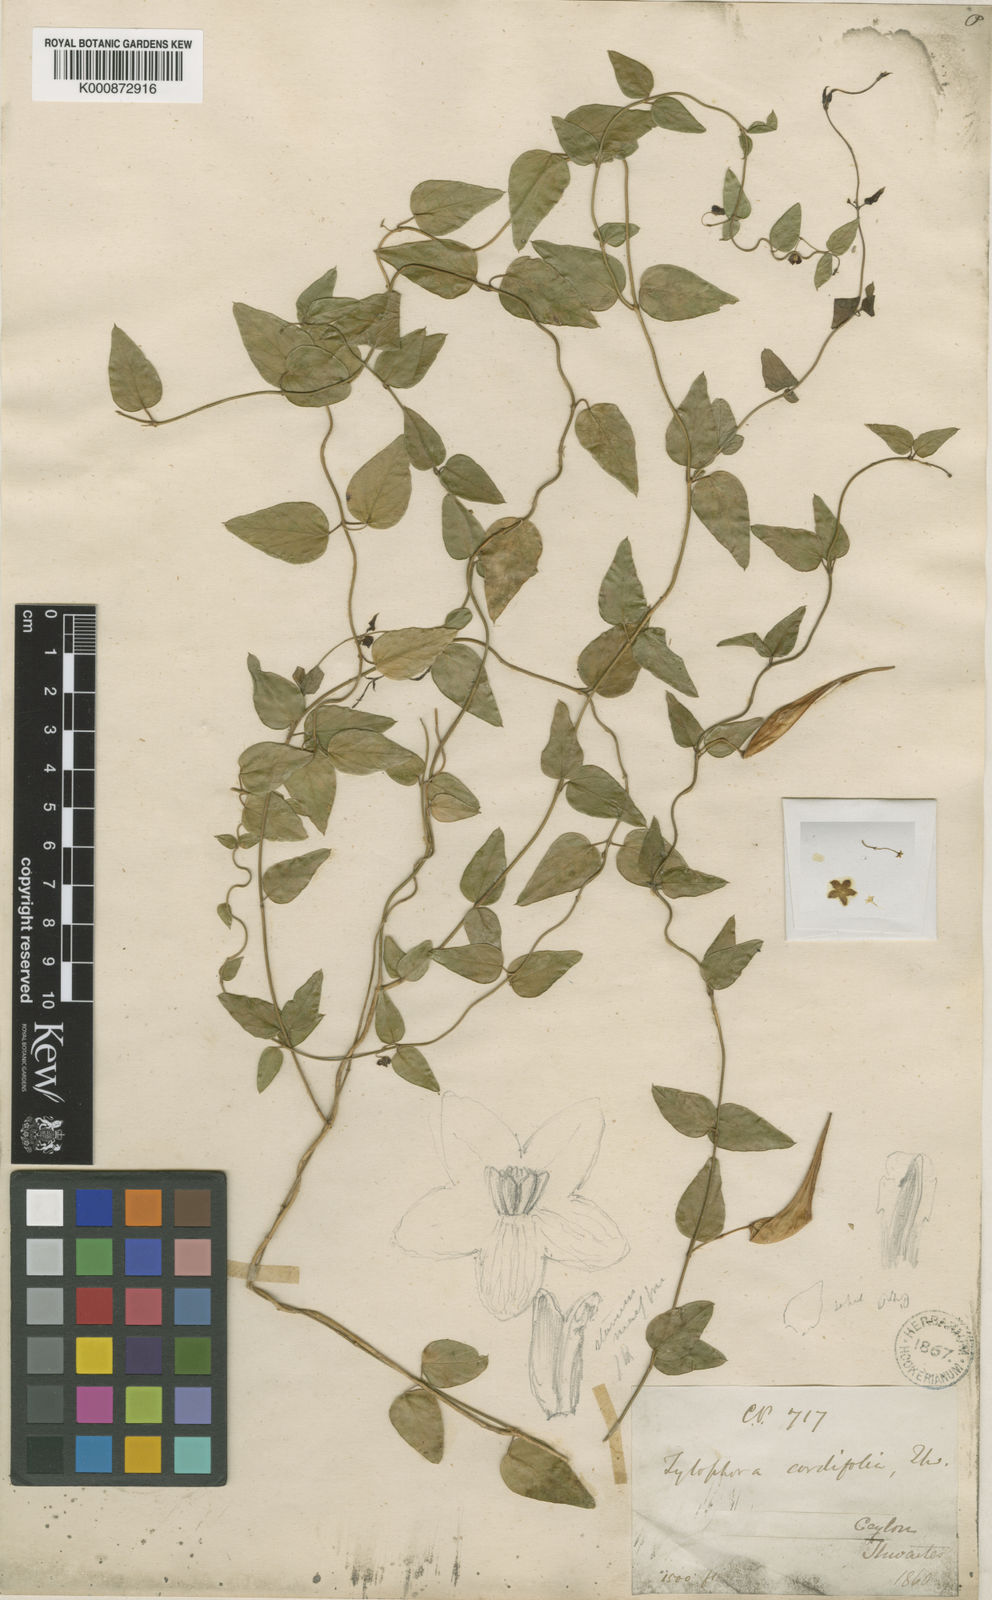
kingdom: Plantae
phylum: Tracheophyta
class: Magnoliopsida
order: Gentianales
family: Apocynaceae
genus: Vincetoxicum
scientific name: Vincetoxicum cordifolium
